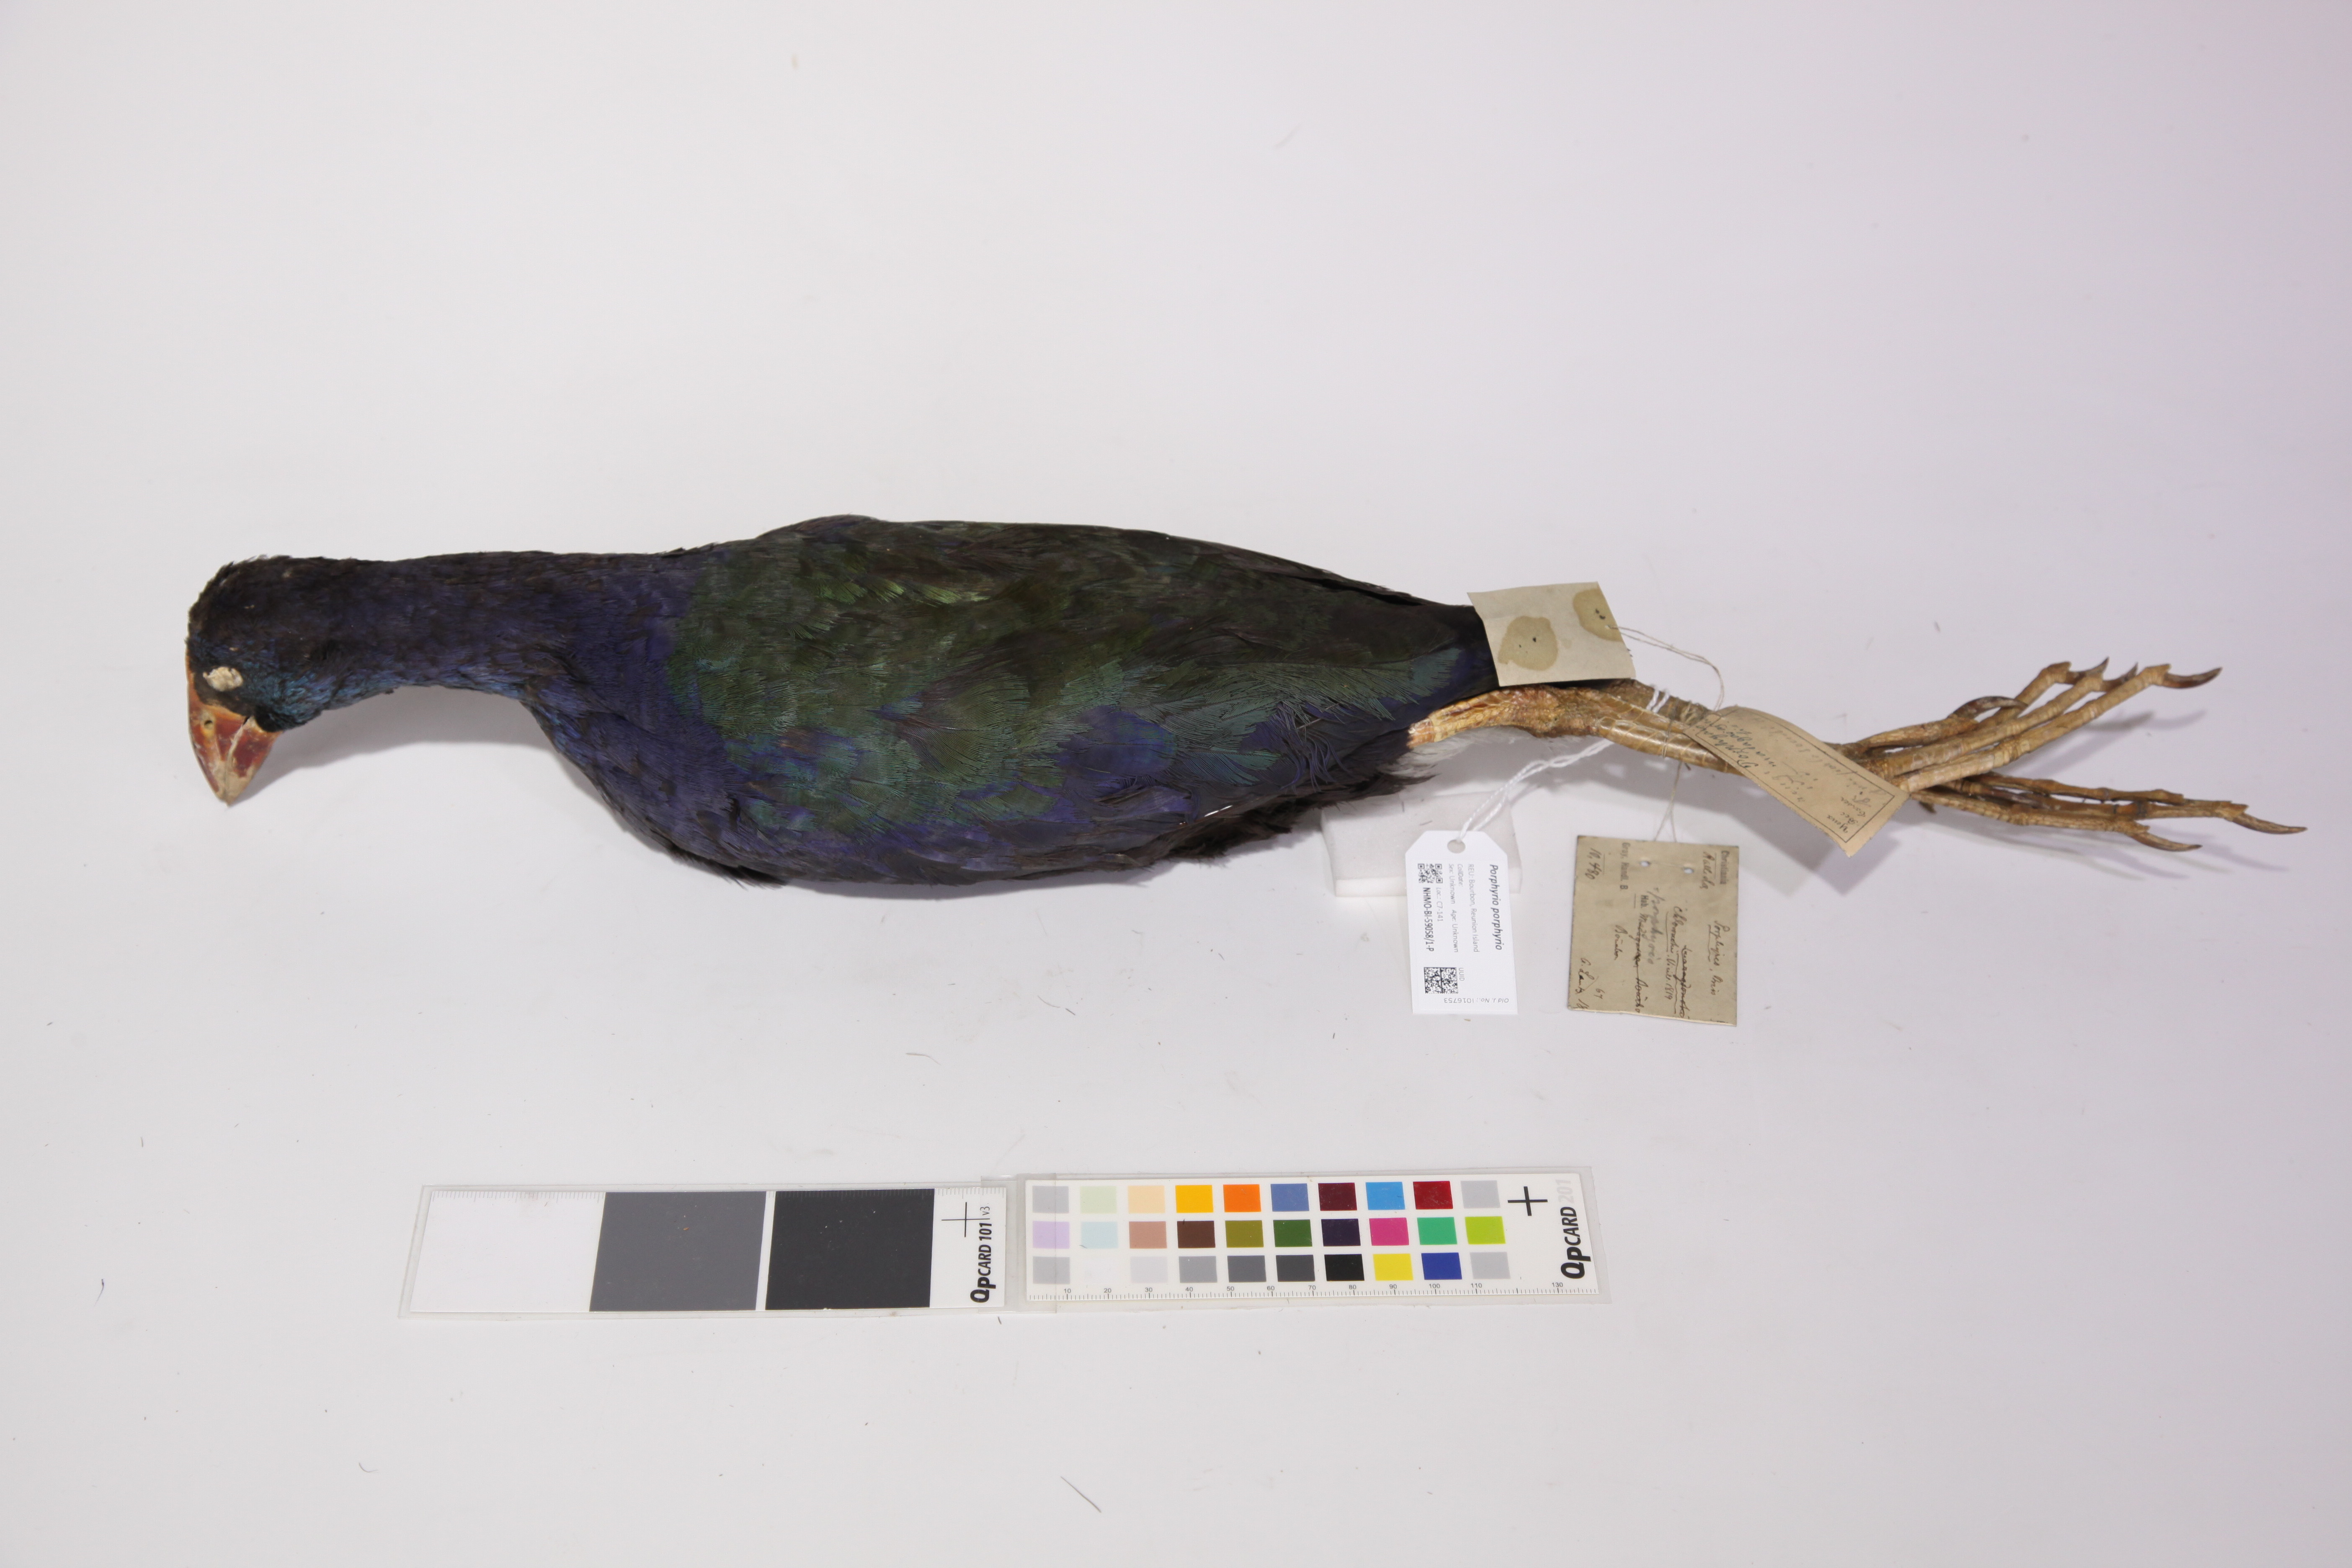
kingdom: Animalia
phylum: Chordata
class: Aves
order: Gruiformes
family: Rallidae
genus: Porphyrio
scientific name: Porphyrio porphyrio
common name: Purple swamphen
